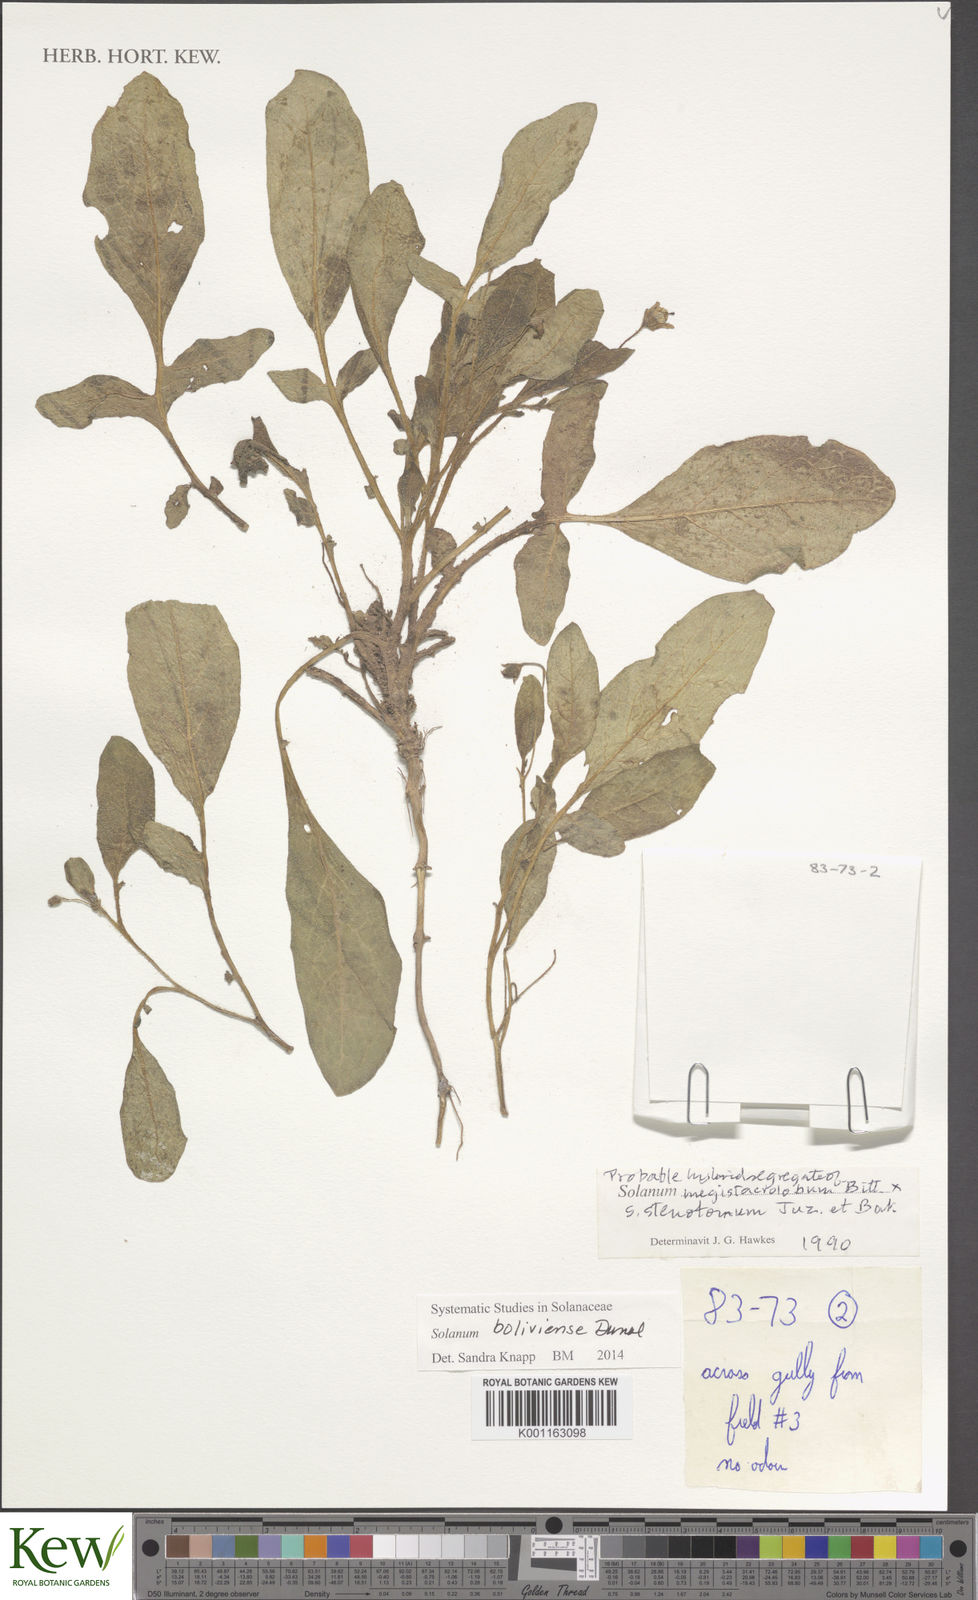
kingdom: Plantae
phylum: Tracheophyta
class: Magnoliopsida
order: Solanales
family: Solanaceae
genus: Solanum
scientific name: Solanum boliviense
